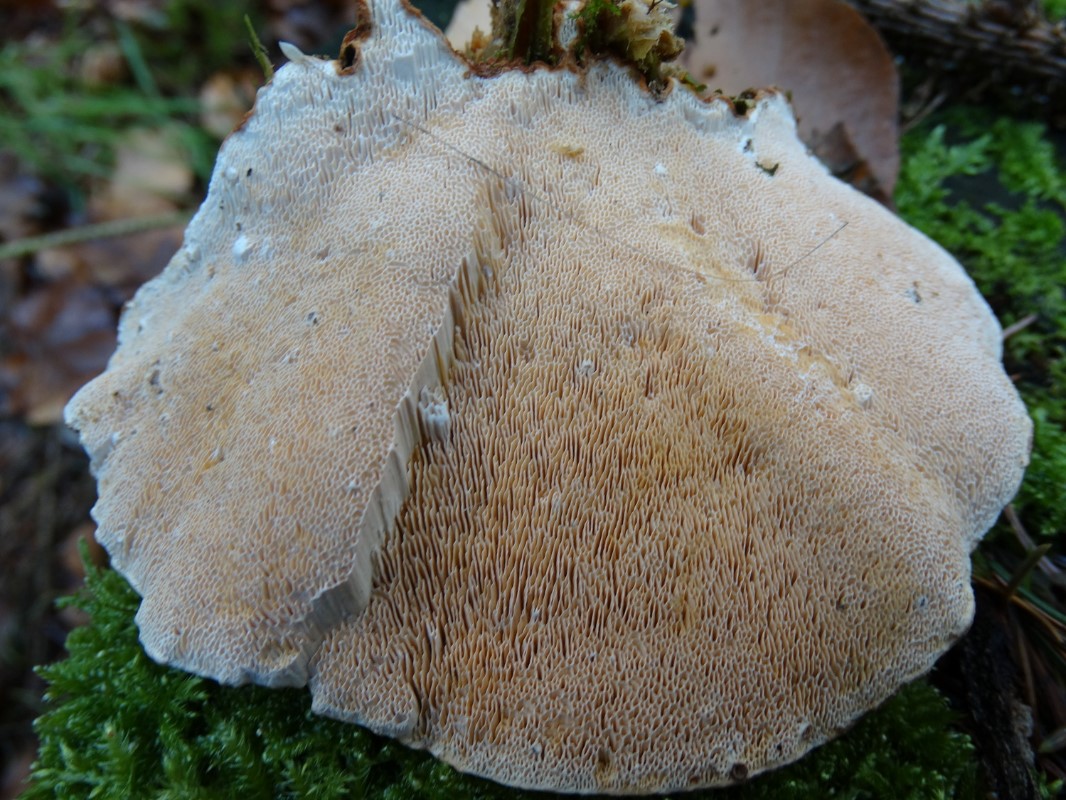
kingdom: Fungi
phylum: Basidiomycota
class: Agaricomycetes
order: Russulales
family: Bondarzewiaceae
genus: Heterobasidion
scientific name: Heterobasidion annosum
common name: almindelig rodfordærver
